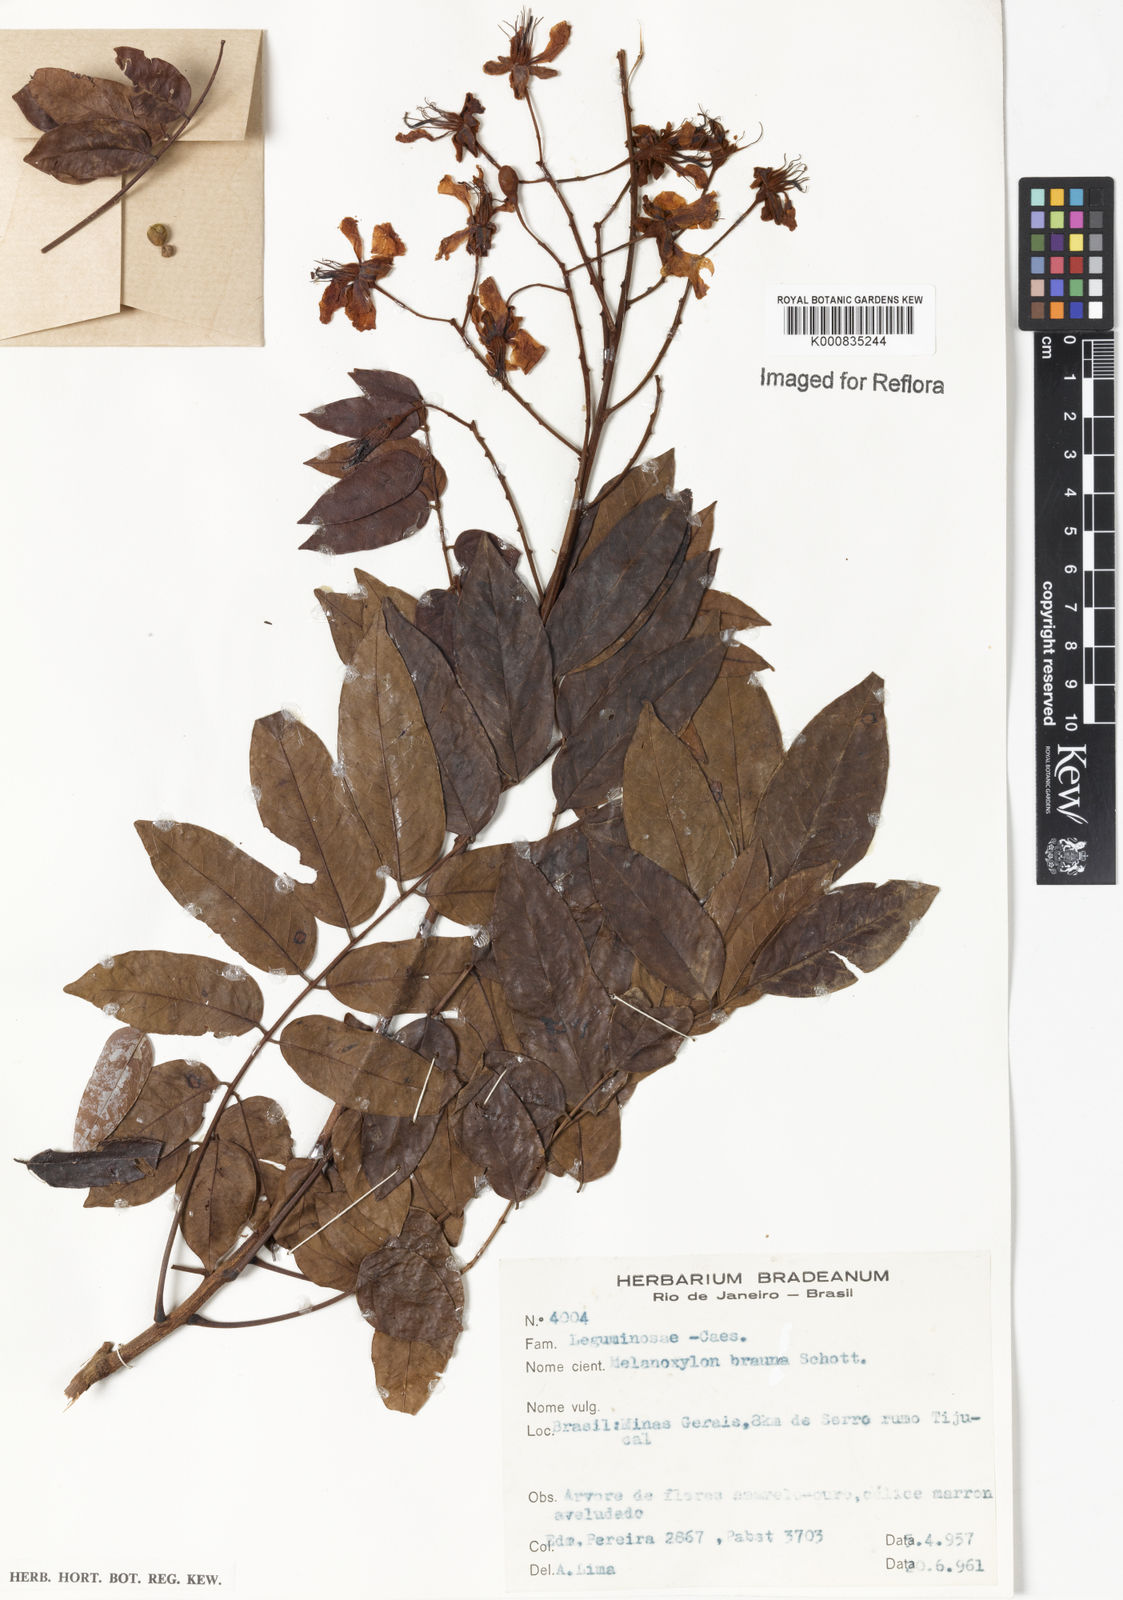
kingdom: Plantae
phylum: Tracheophyta
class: Magnoliopsida
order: Fabales
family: Fabaceae
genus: Melanoxylum
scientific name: Melanoxylum brauna
